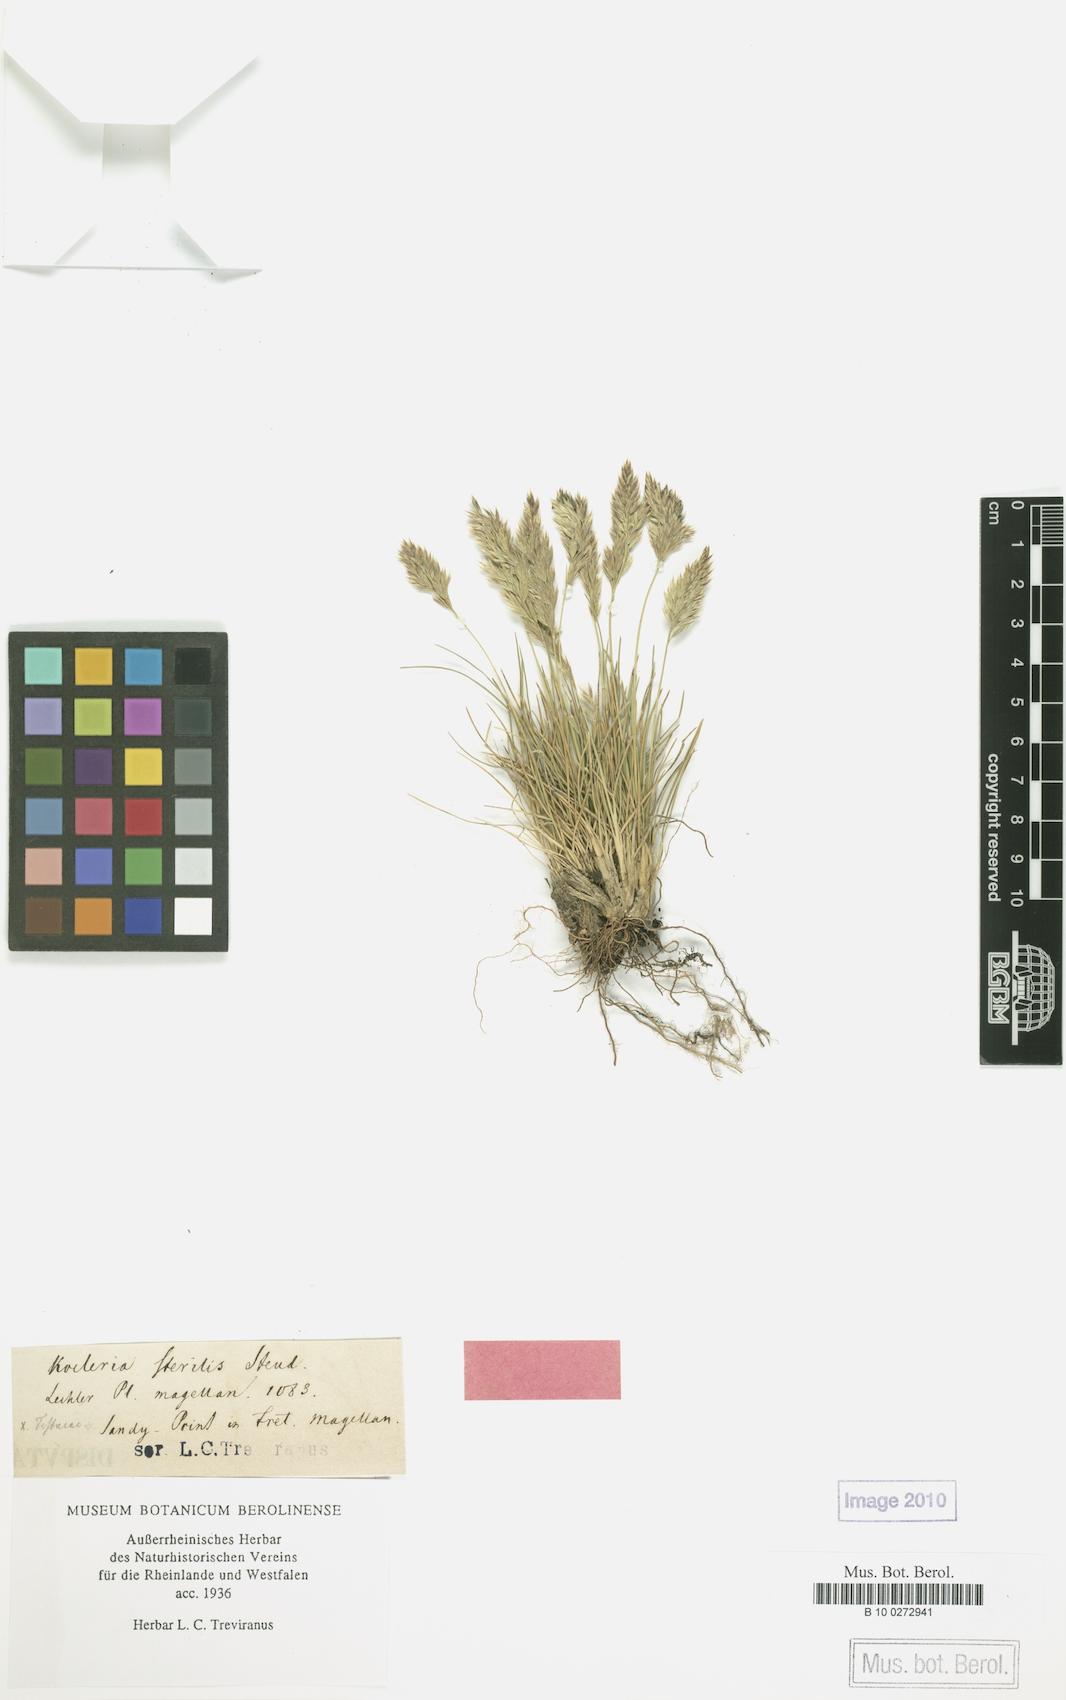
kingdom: Plantae
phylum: Tracheophyta
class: Liliopsida
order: Poales
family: Poaceae
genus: Poa
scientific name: Poa spiciformis
